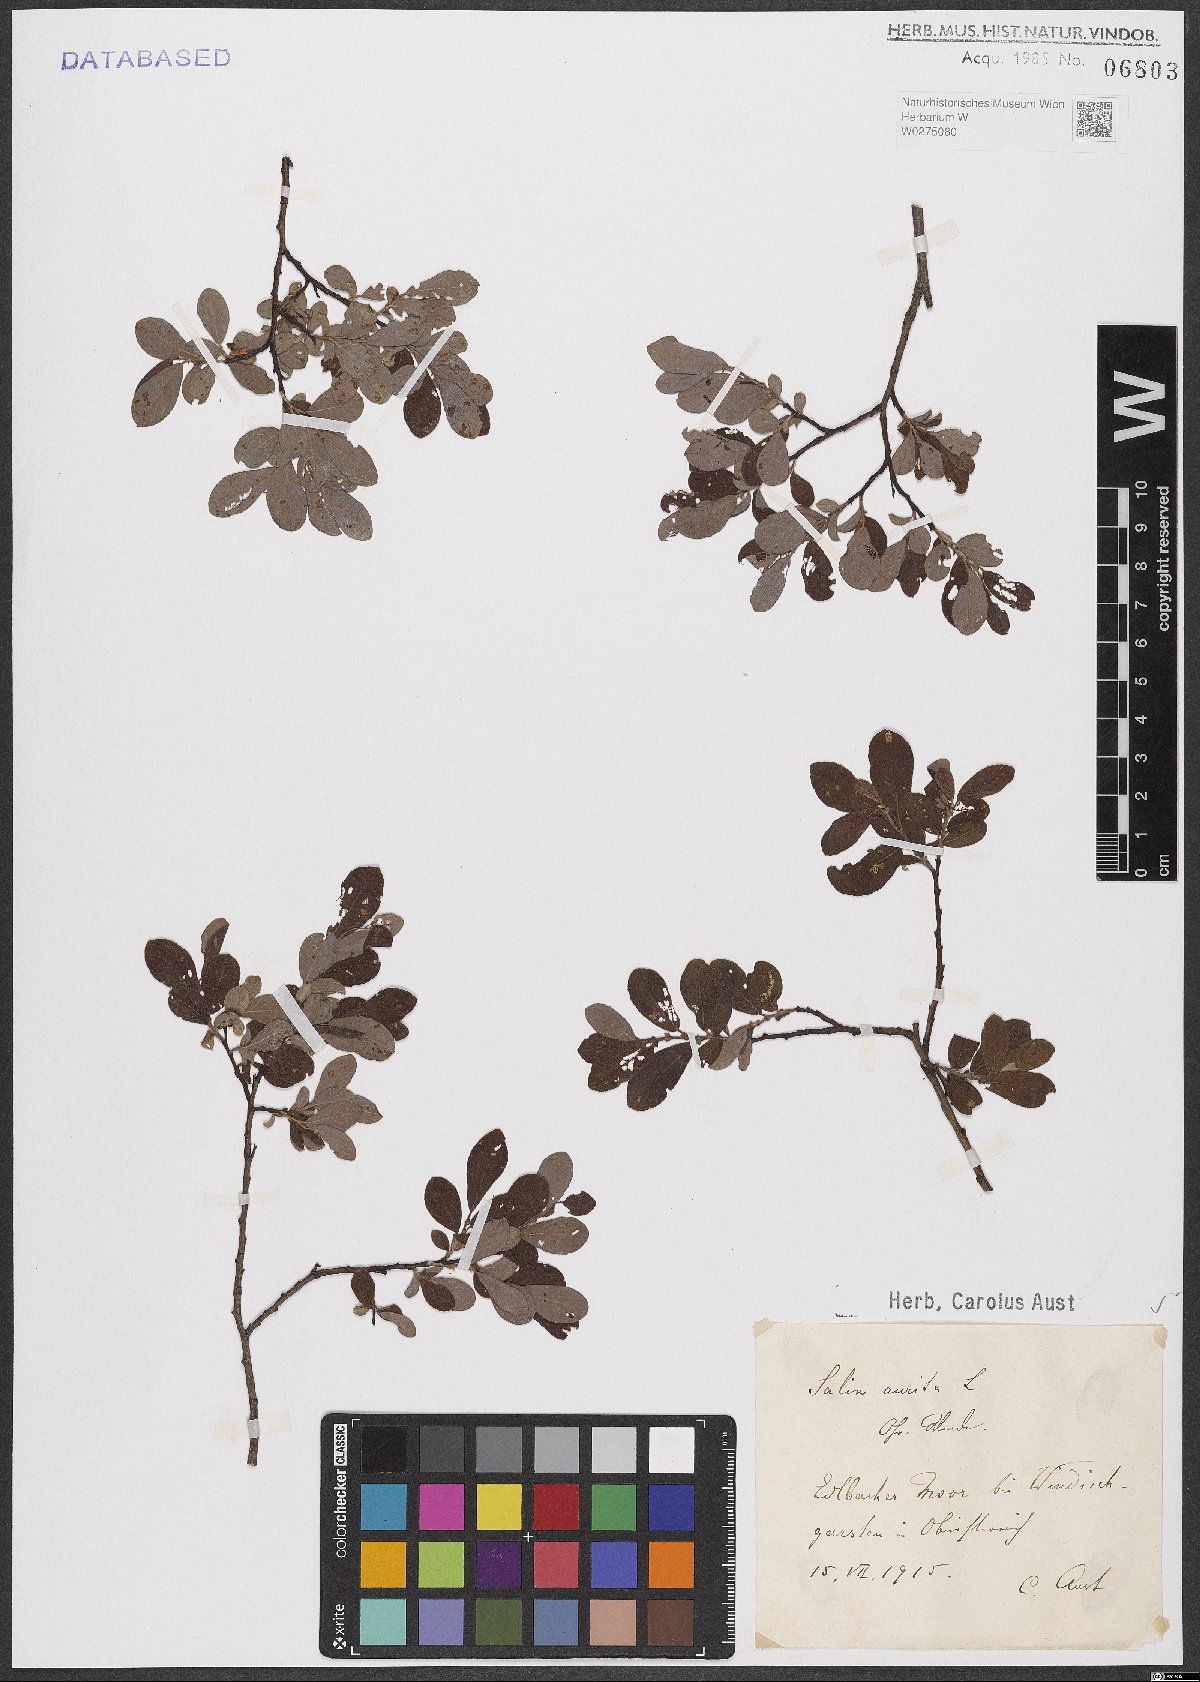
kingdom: Plantae
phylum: Tracheophyta
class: Magnoliopsida
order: Malpighiales
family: Salicaceae
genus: Salix
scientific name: Salix aurita
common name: Eared willow
